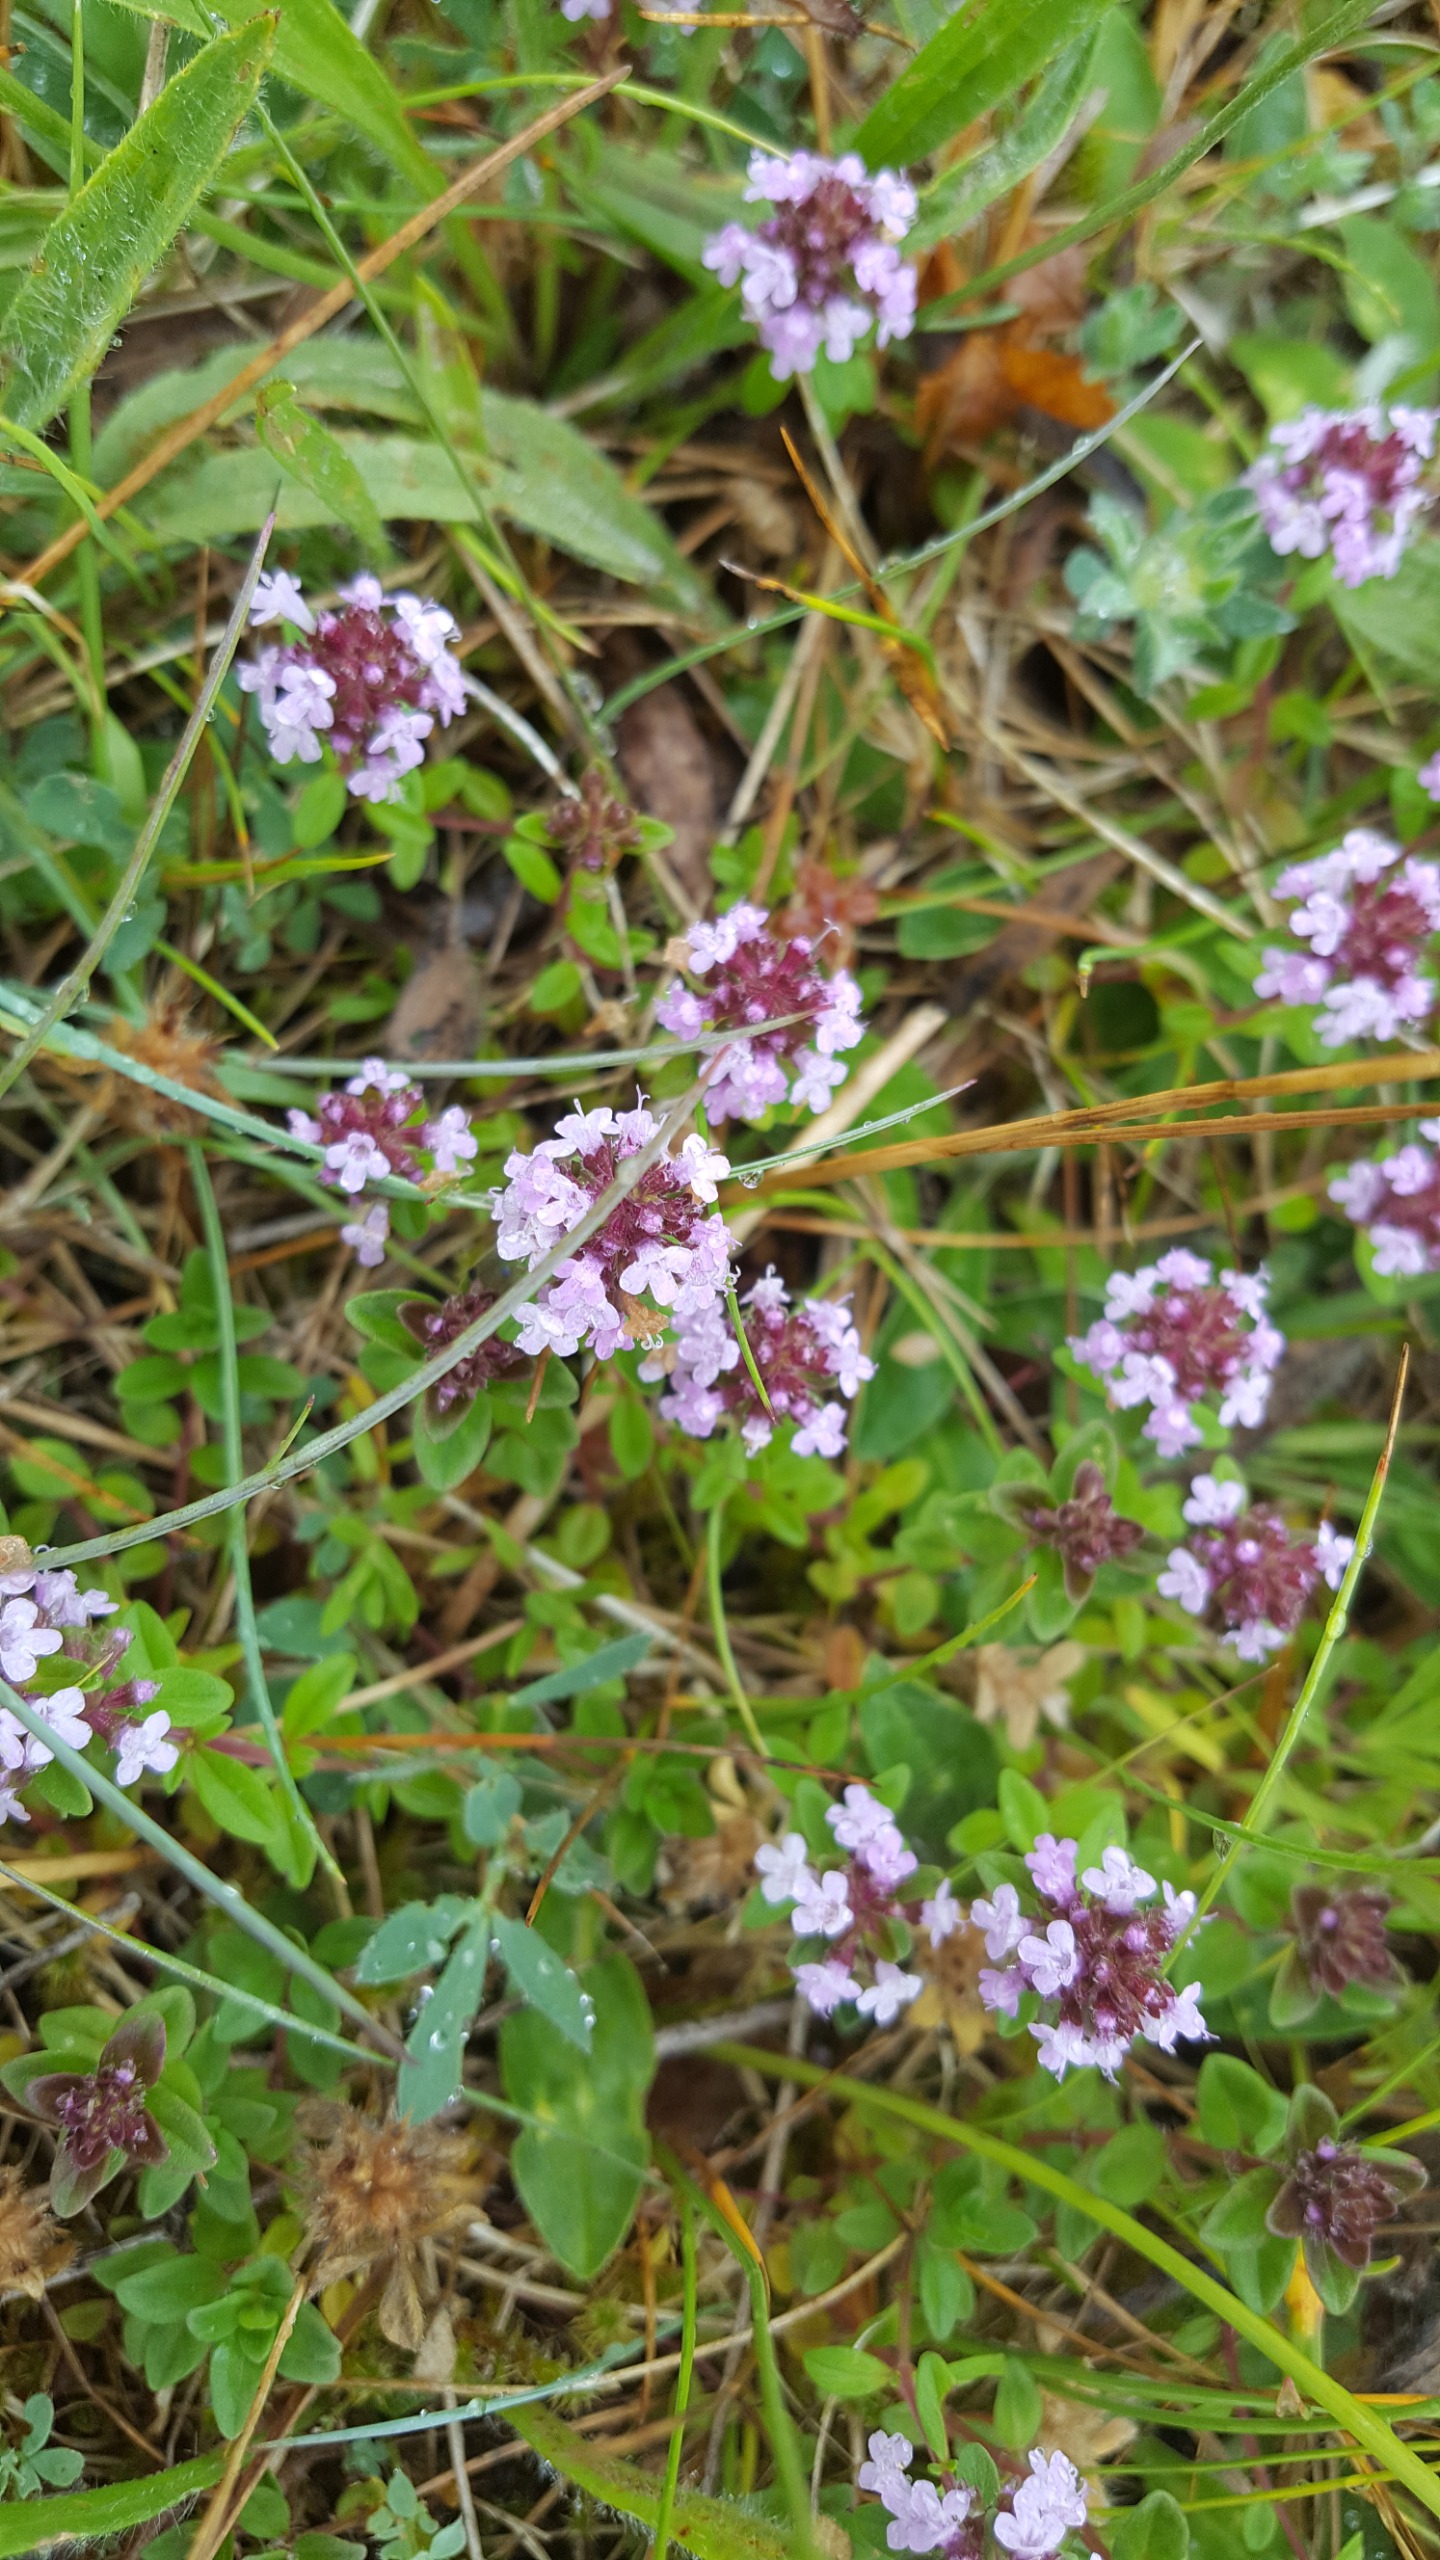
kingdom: Plantae
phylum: Tracheophyta
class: Magnoliopsida
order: Lamiales
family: Lamiaceae
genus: Thymus
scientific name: Thymus pulegioides
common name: Bredbladet timian
